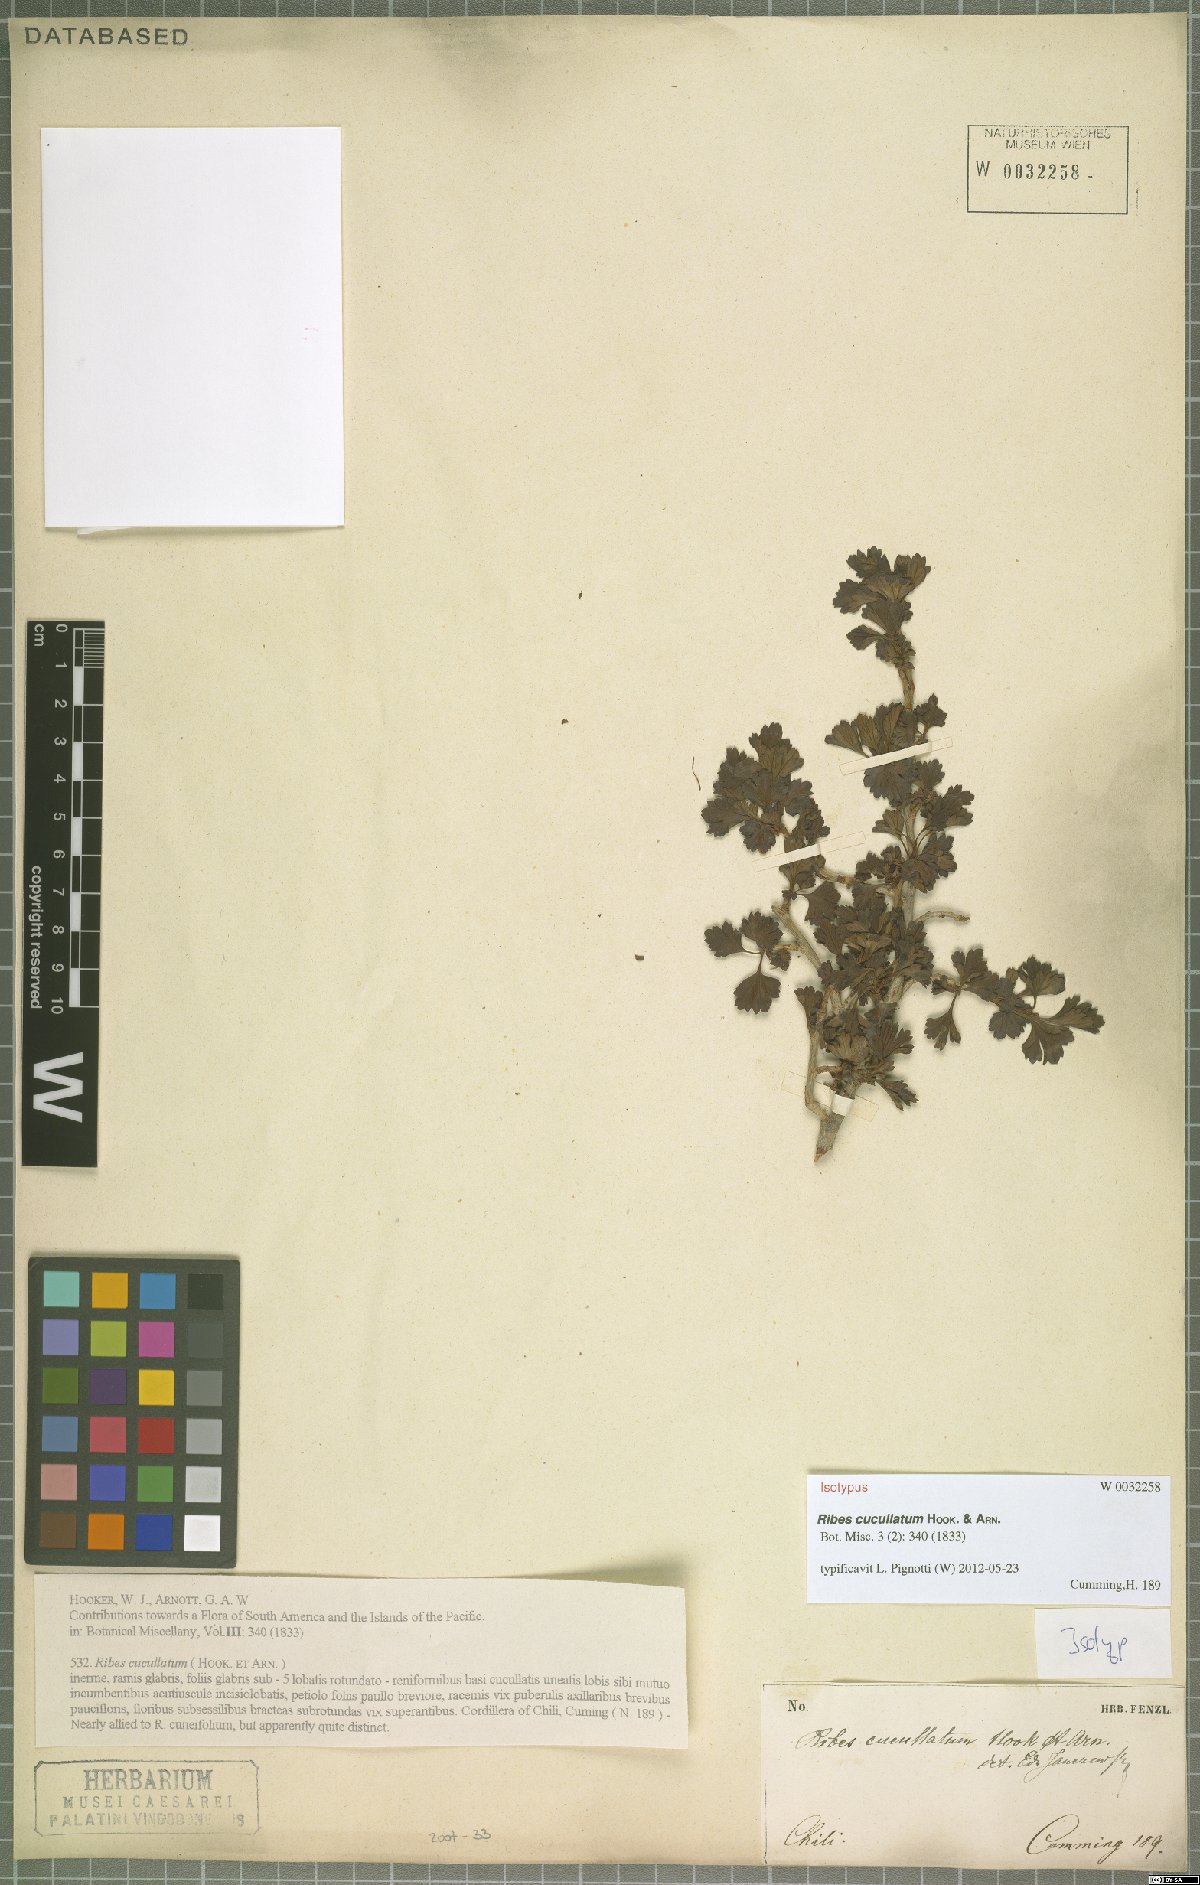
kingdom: Plantae
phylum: Tracheophyta
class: Magnoliopsida
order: Saxifragales
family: Grossulariaceae
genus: Ribes
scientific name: Ribes cucullatum
